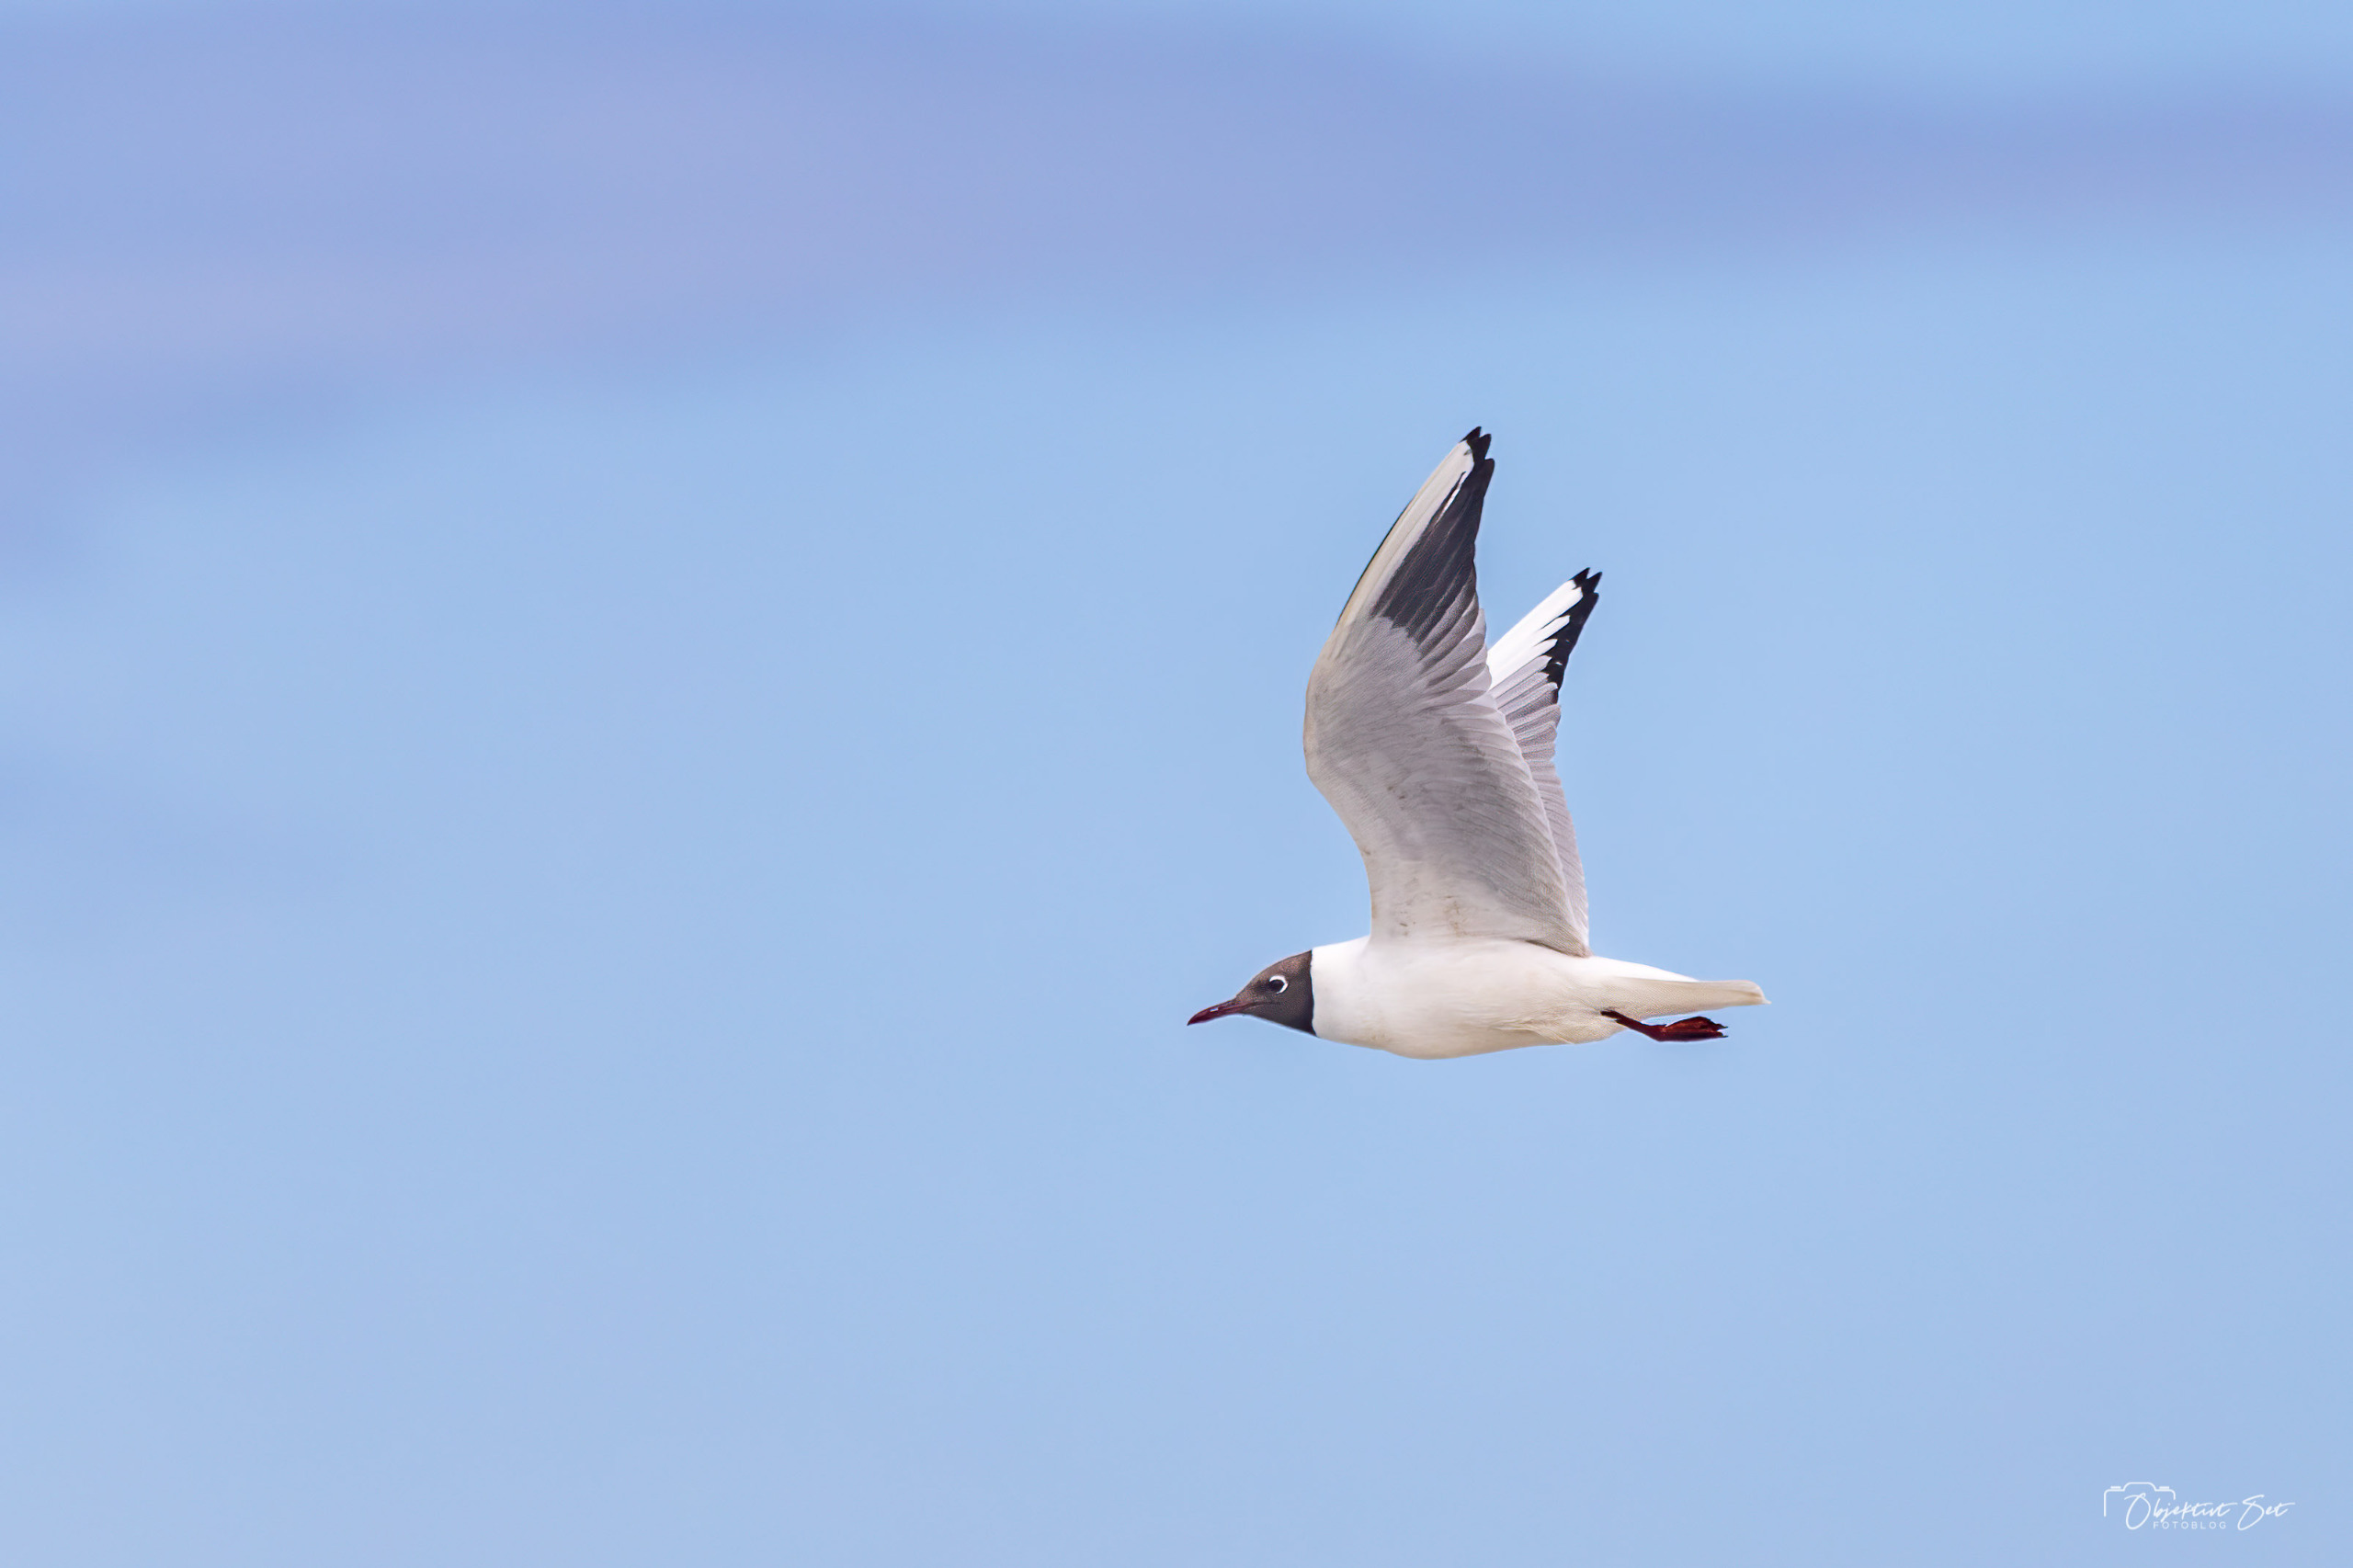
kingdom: Animalia
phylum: Chordata
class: Aves
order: Charadriiformes
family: Laridae
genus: Chroicocephalus
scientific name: Chroicocephalus ridibundus
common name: Hættemåge
